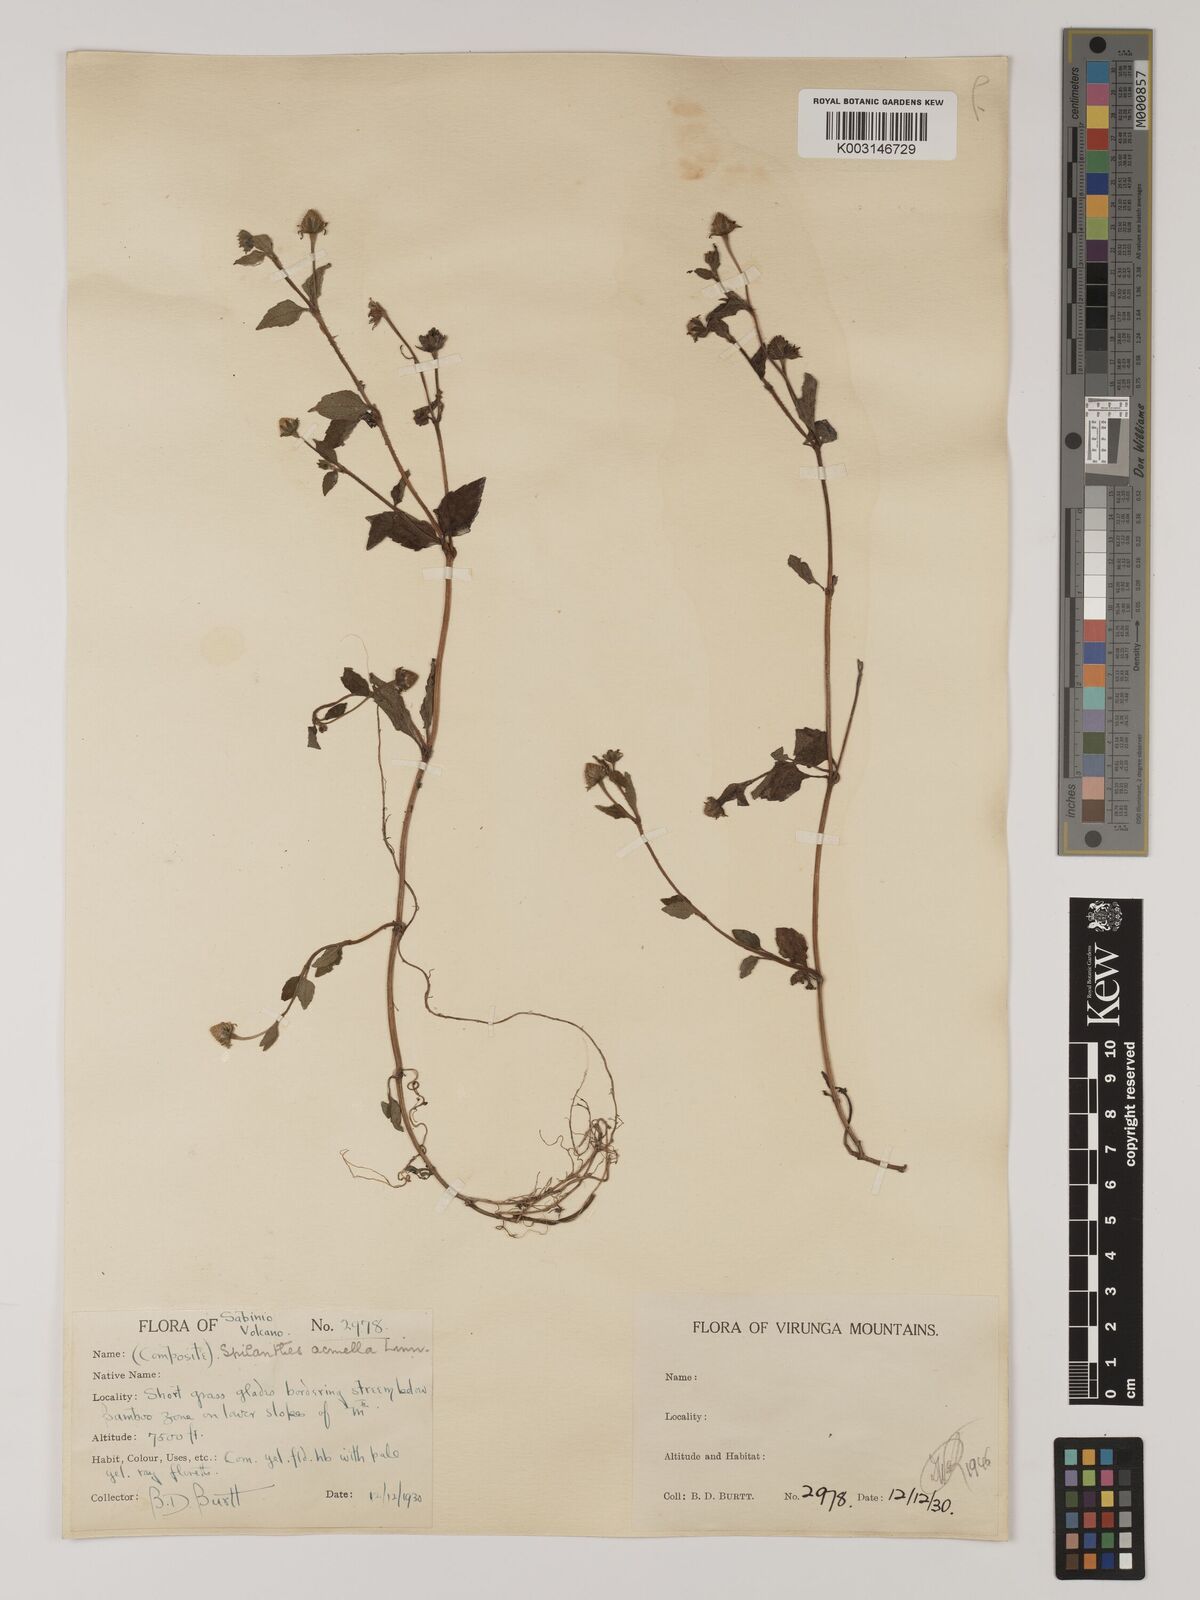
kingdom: Plantae
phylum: Tracheophyta
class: Magnoliopsida
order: Asterales
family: Asteraceae
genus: Blainvillea
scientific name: Blainvillea acmella
